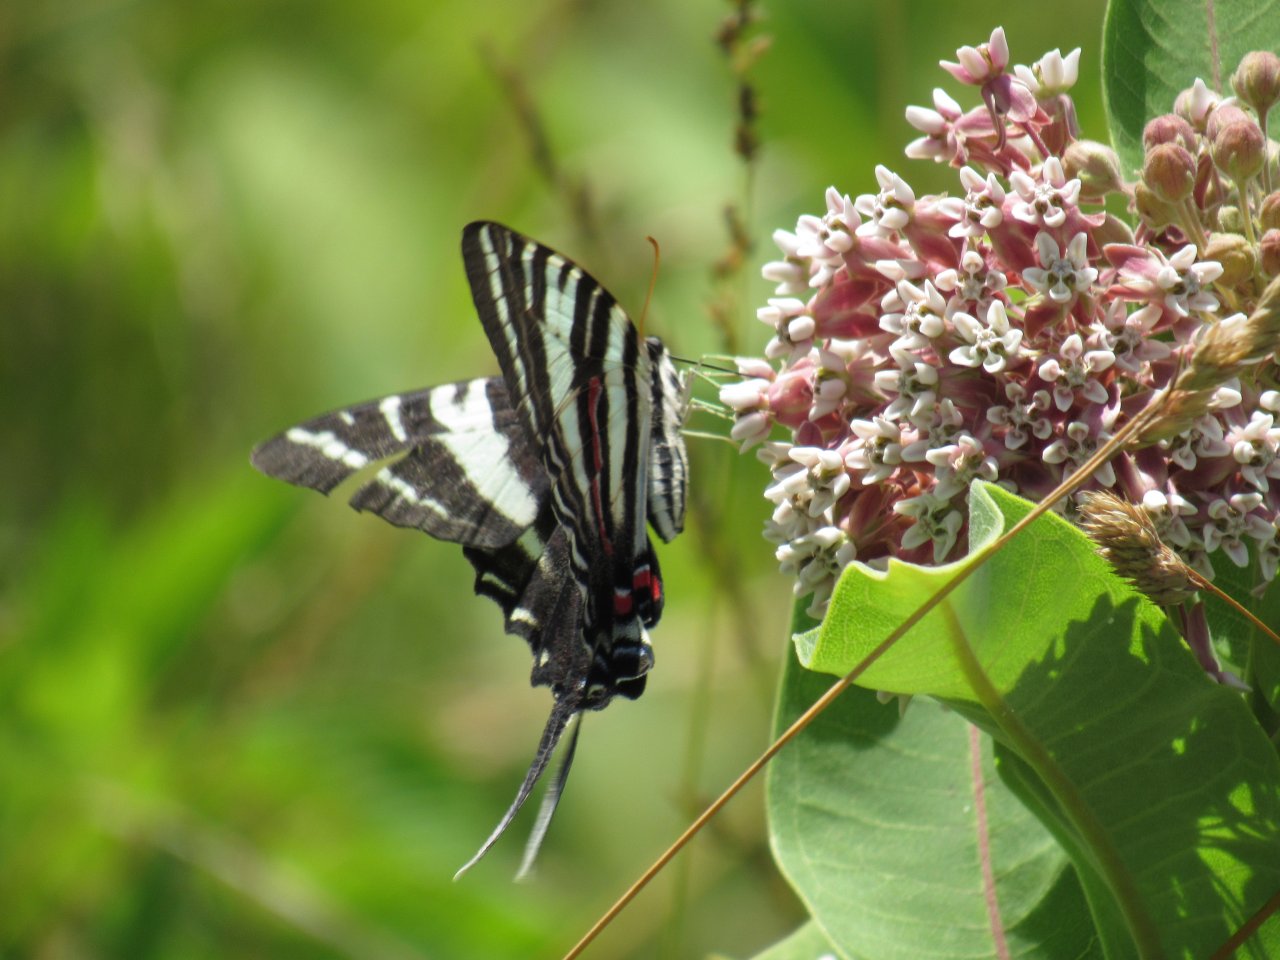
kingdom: Animalia
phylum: Arthropoda
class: Insecta
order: Lepidoptera
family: Papilionidae
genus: Protographium
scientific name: Protographium marcellus
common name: Zebra Swallowtail
